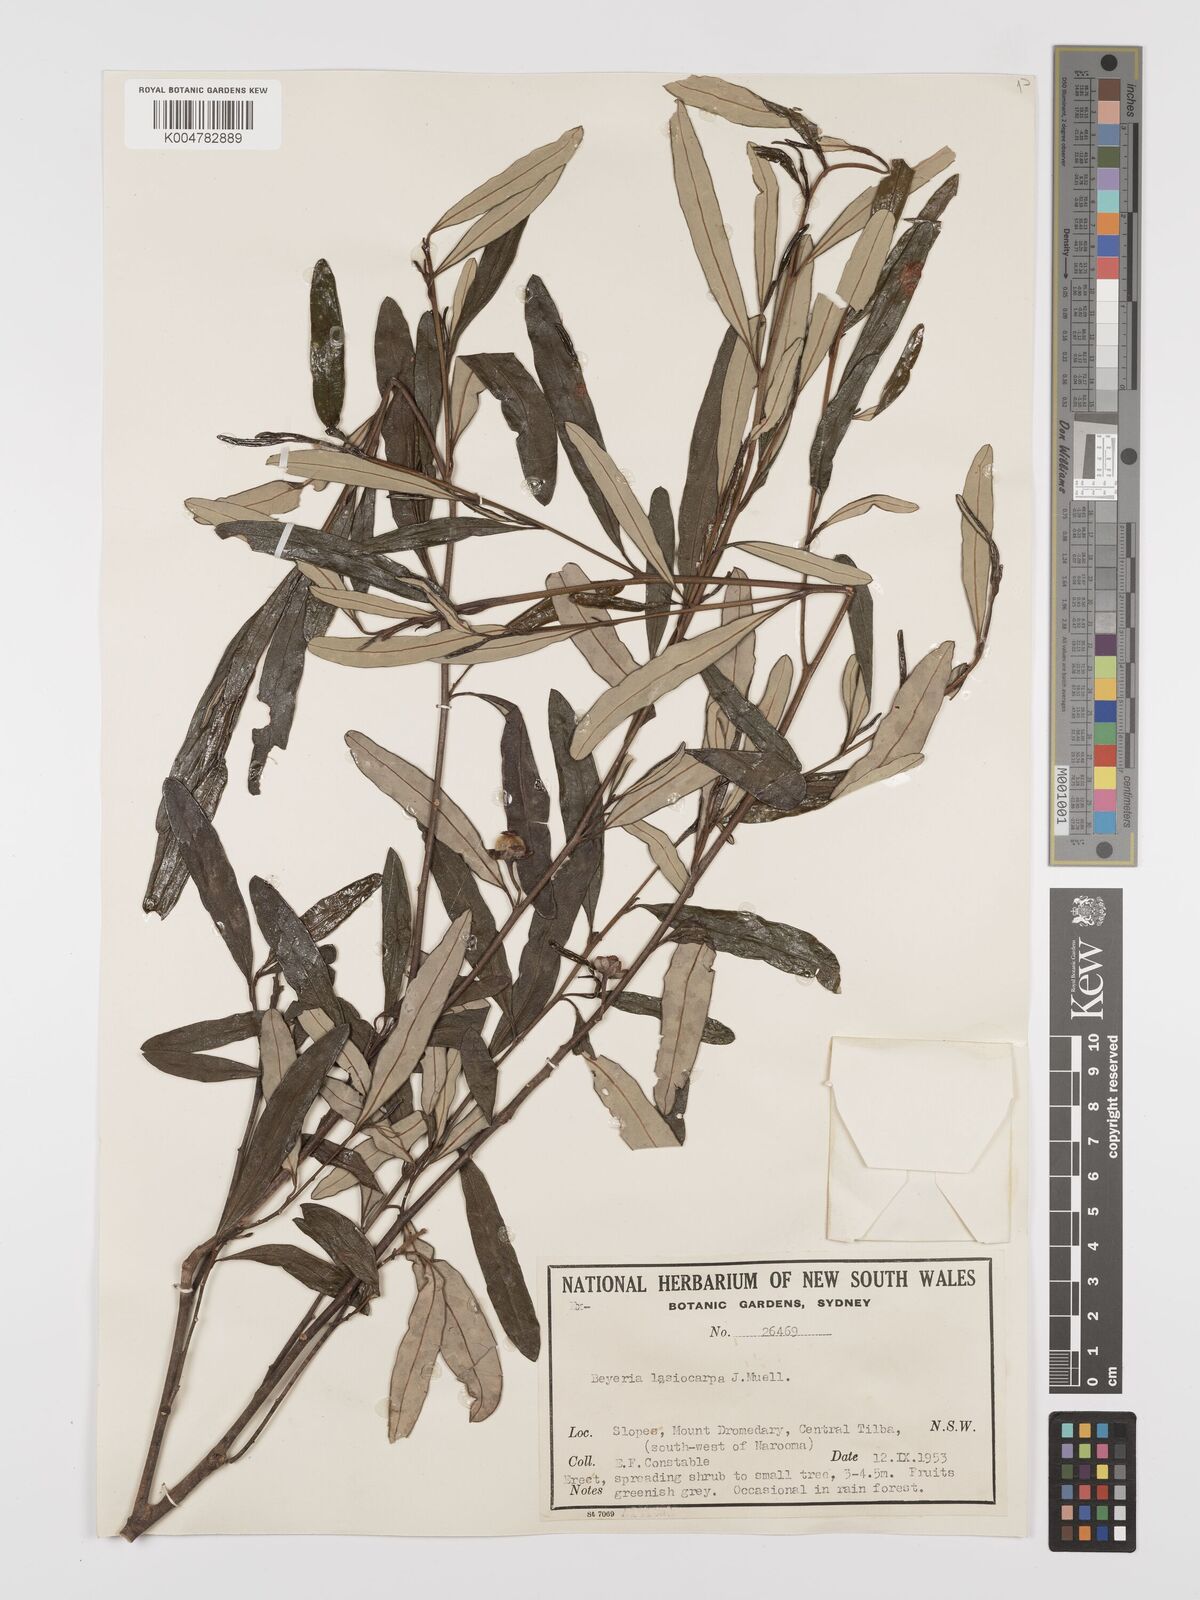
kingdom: Plantae
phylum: Tracheophyta
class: Magnoliopsida
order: Malpighiales
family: Euphorbiaceae
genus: Beyeria
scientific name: Beyeria lasiocarpa
